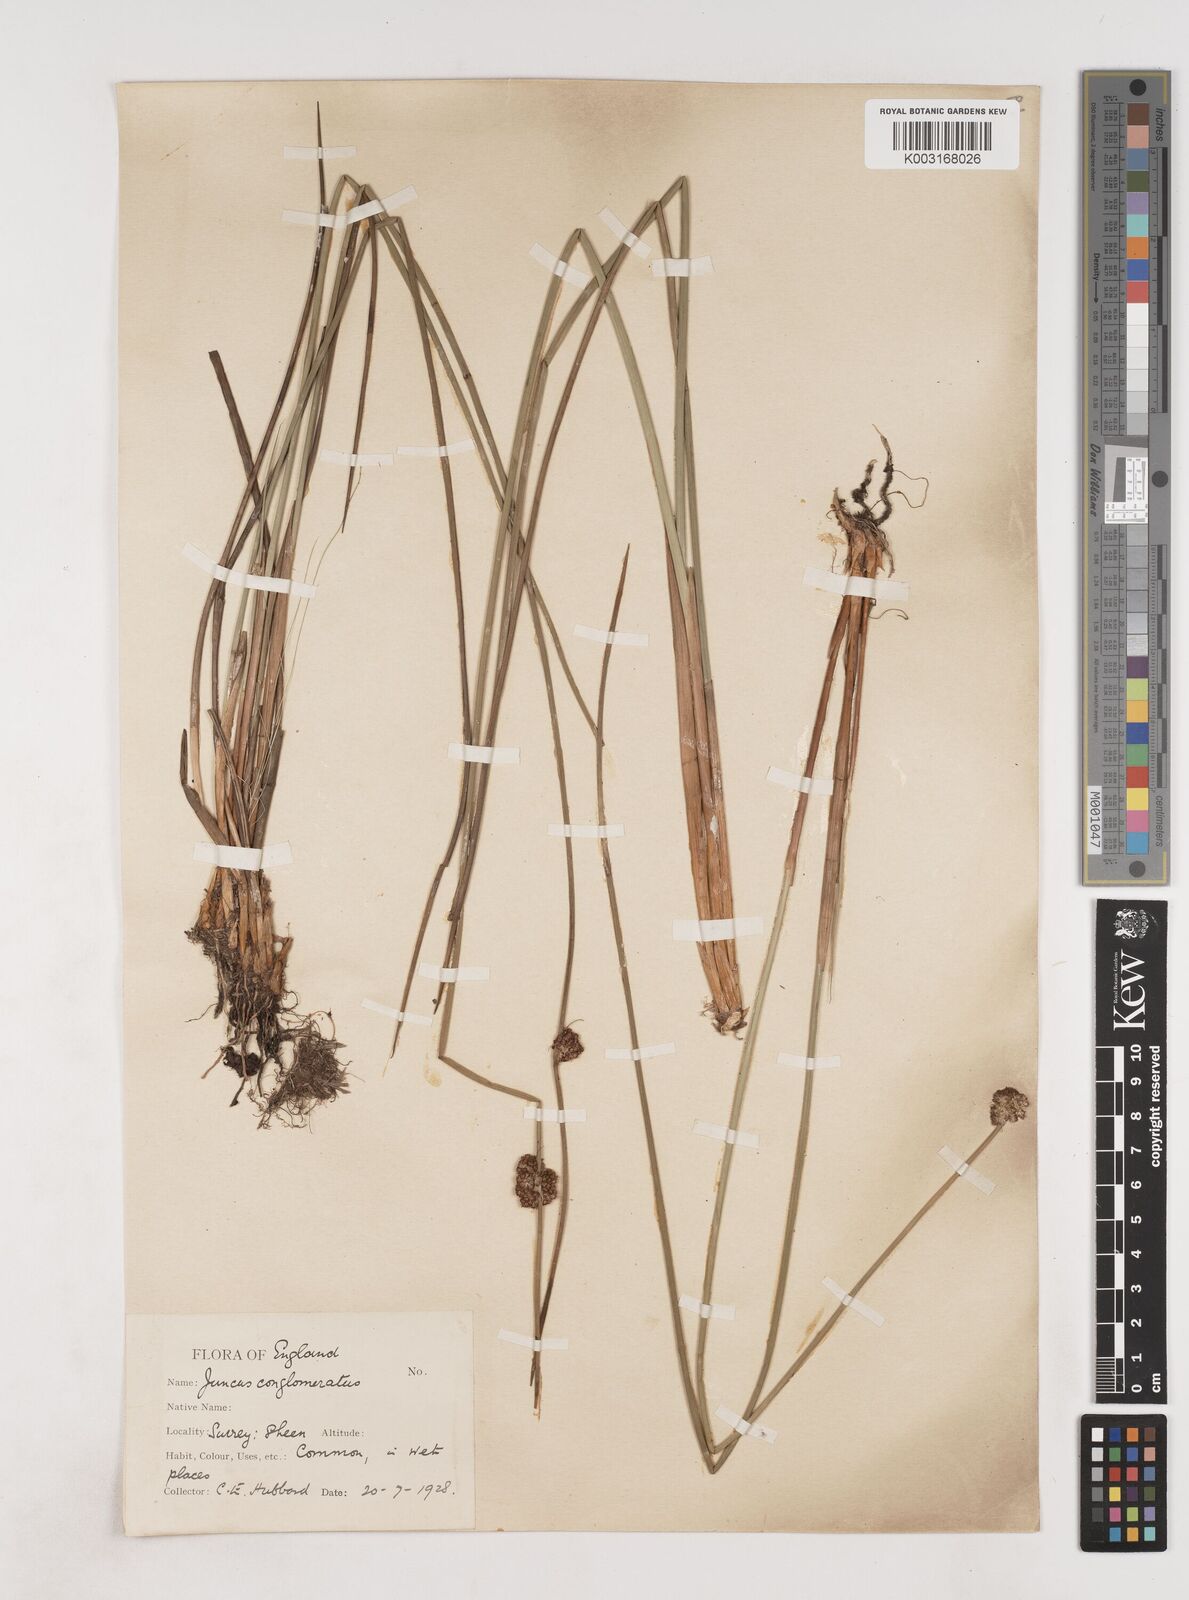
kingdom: Plantae
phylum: Tracheophyta
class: Liliopsida
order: Poales
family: Juncaceae
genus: Juncus
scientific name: Juncus conglomeratus
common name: Compact rush
